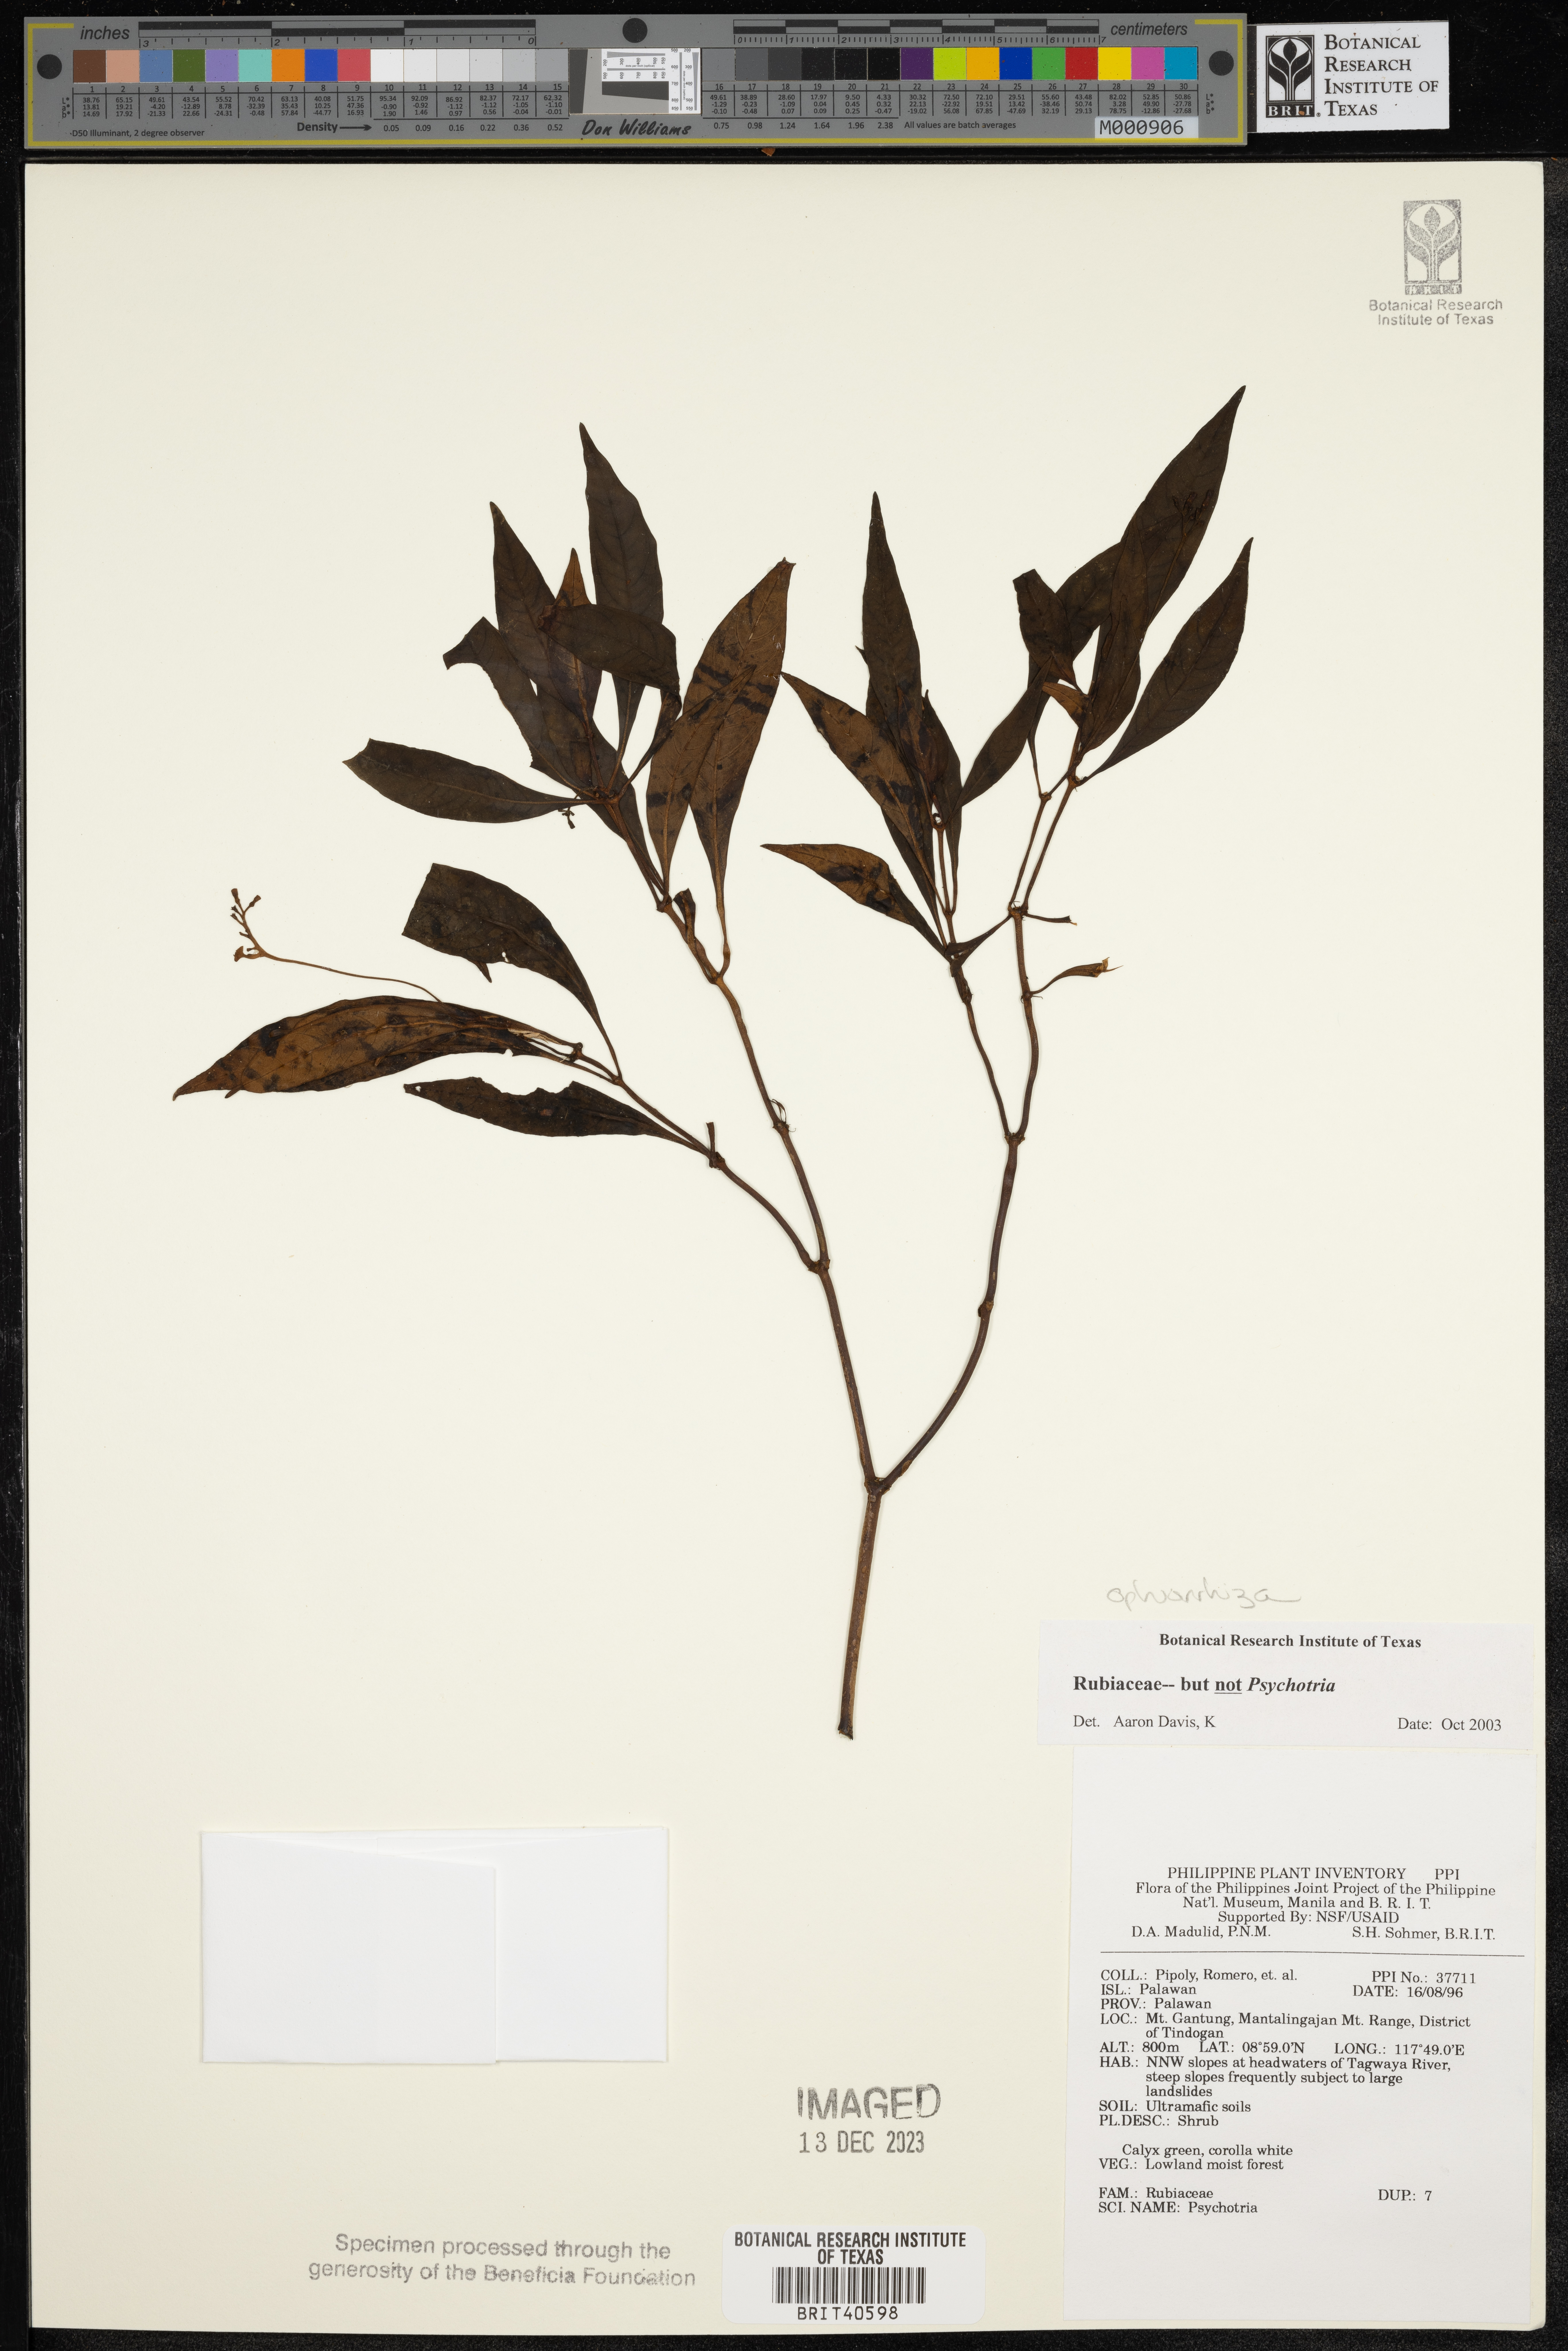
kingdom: Plantae
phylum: Tracheophyta
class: Magnoliopsida
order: Gentianales
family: Rubiaceae
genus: Ophiorrhiza
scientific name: Ophiorrhiza
